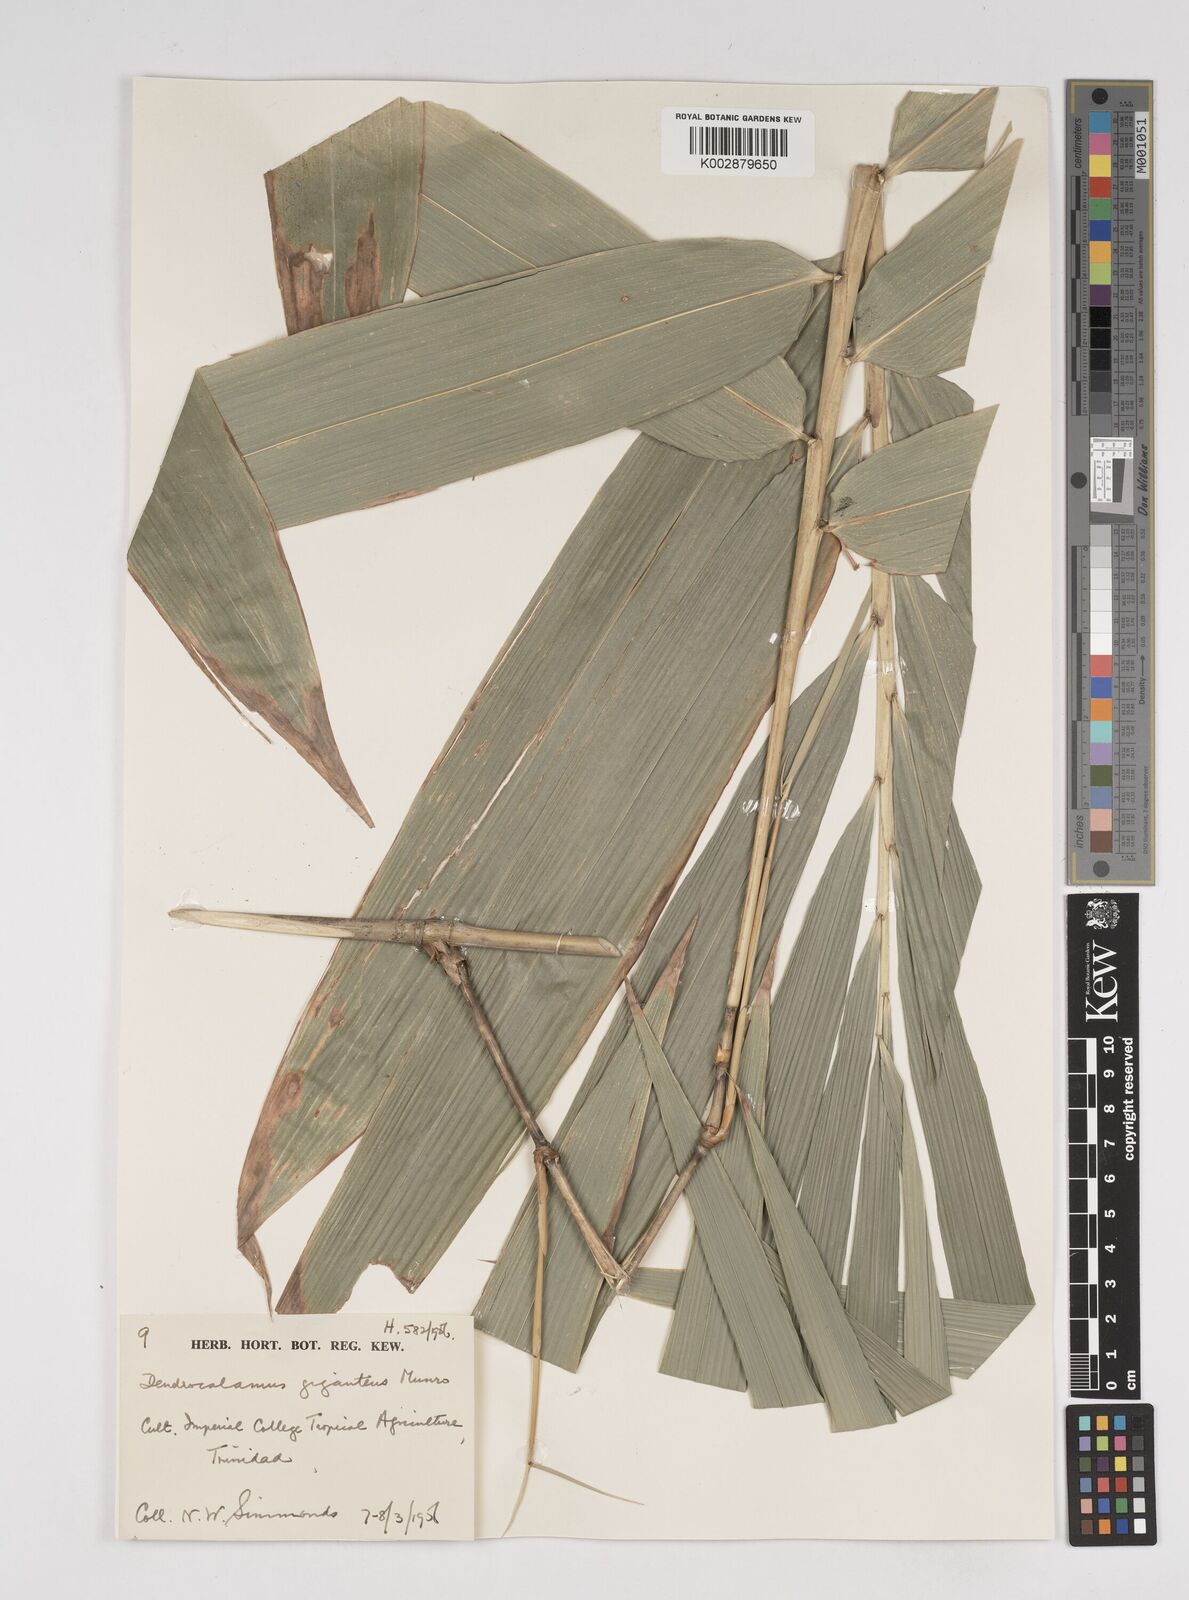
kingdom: Plantae
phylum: Tracheophyta
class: Liliopsida
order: Poales
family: Poaceae
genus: Dendrocalamus
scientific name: Dendrocalamus giganteus
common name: Giant bamboo
